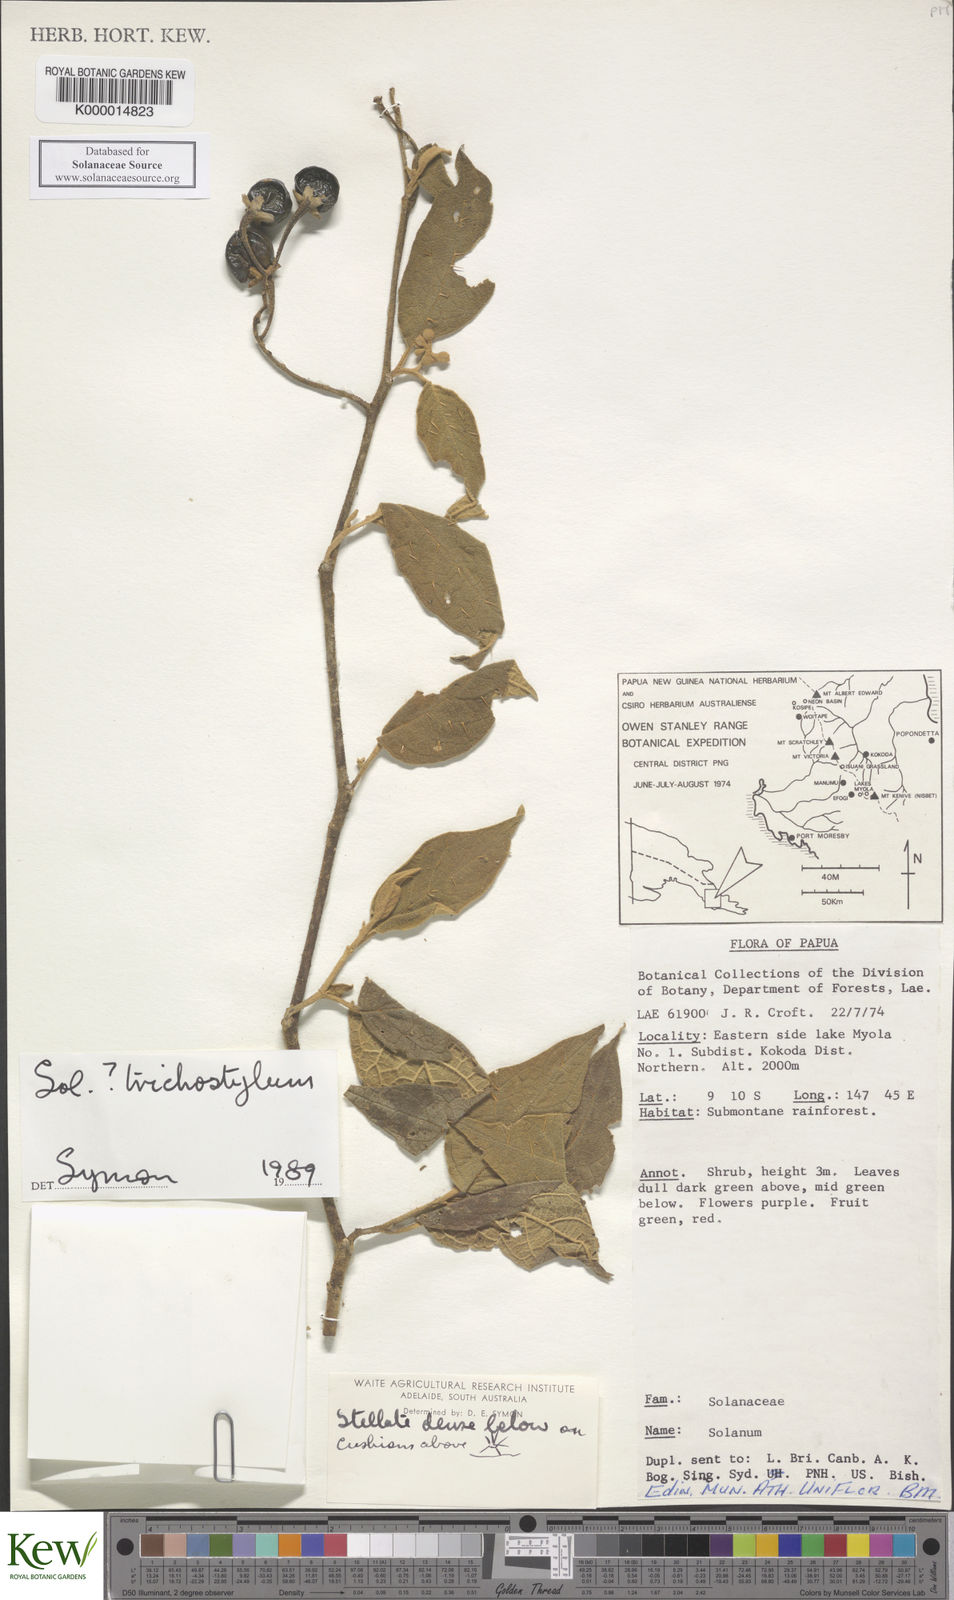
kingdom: Plantae
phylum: Tracheophyta
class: Magnoliopsida
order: Solanales
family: Solanaceae
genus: Solanum
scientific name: Solanum trichostylum
